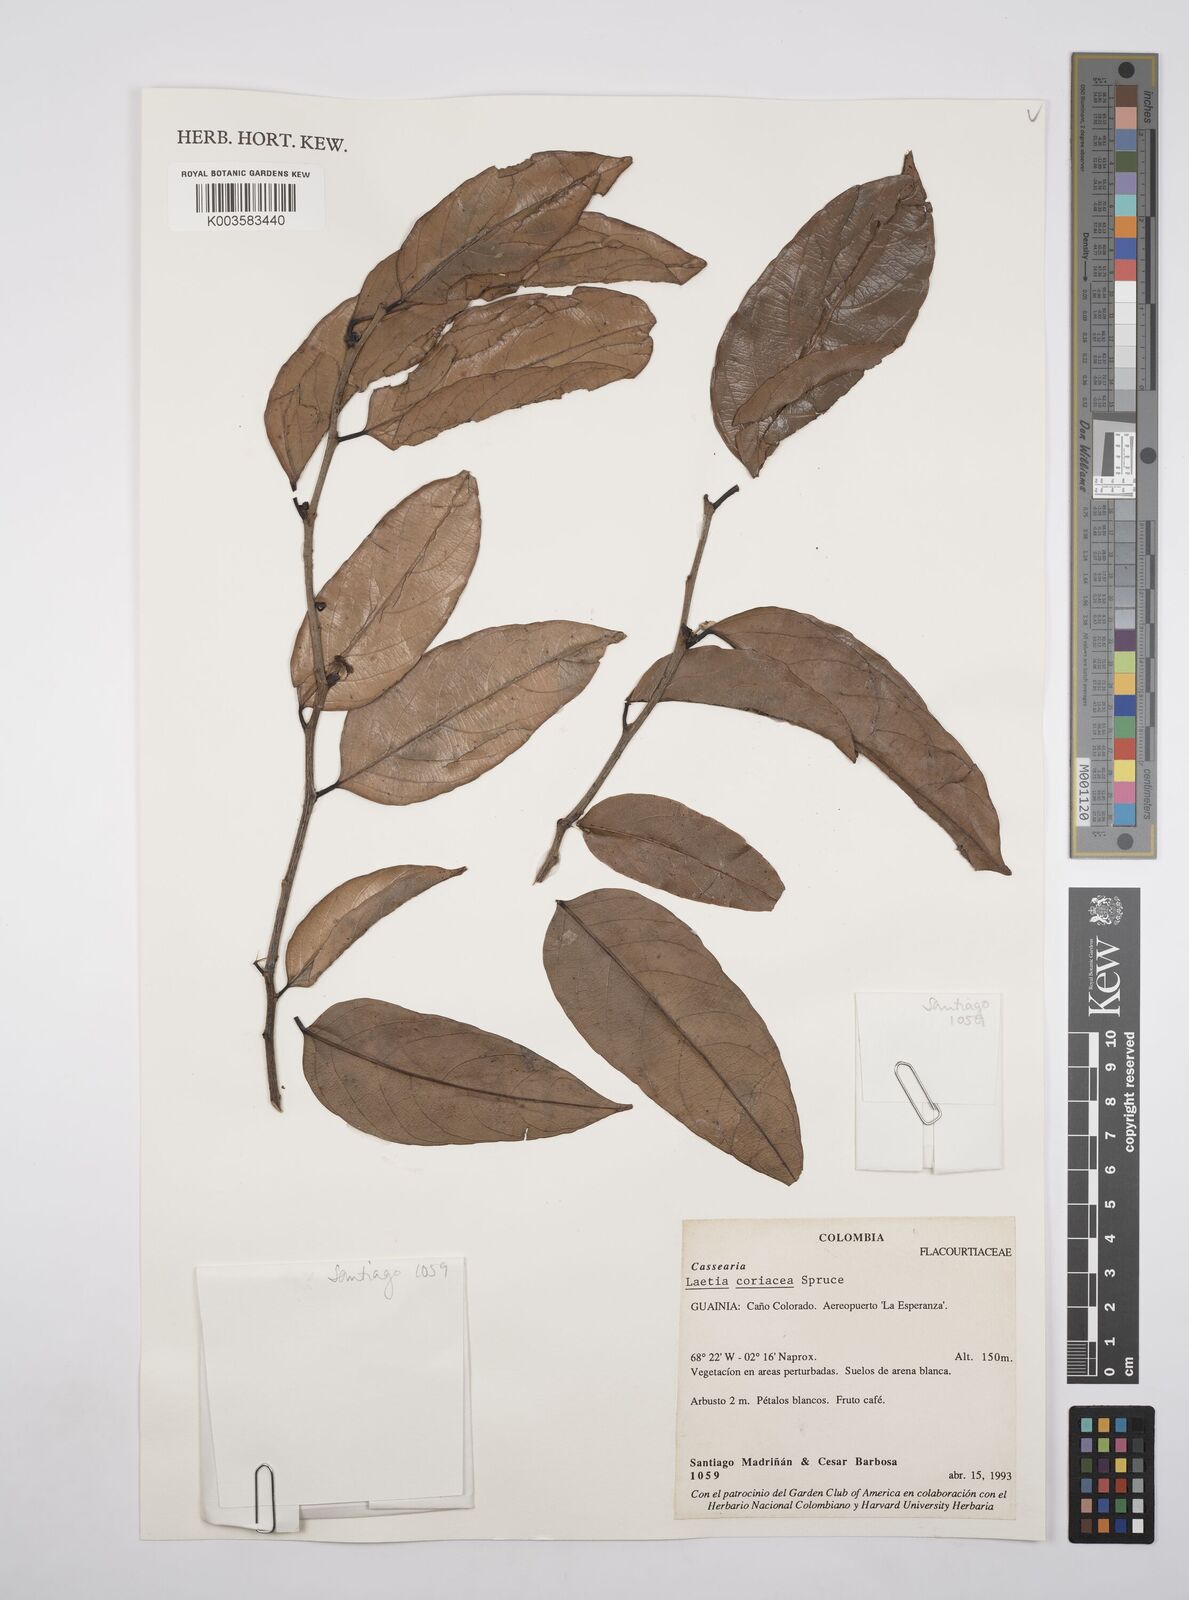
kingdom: Plantae
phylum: Tracheophyta
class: Magnoliopsida
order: Malpighiales
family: Salicaceae
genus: Irenodendron
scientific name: Irenodendron coriaceum
